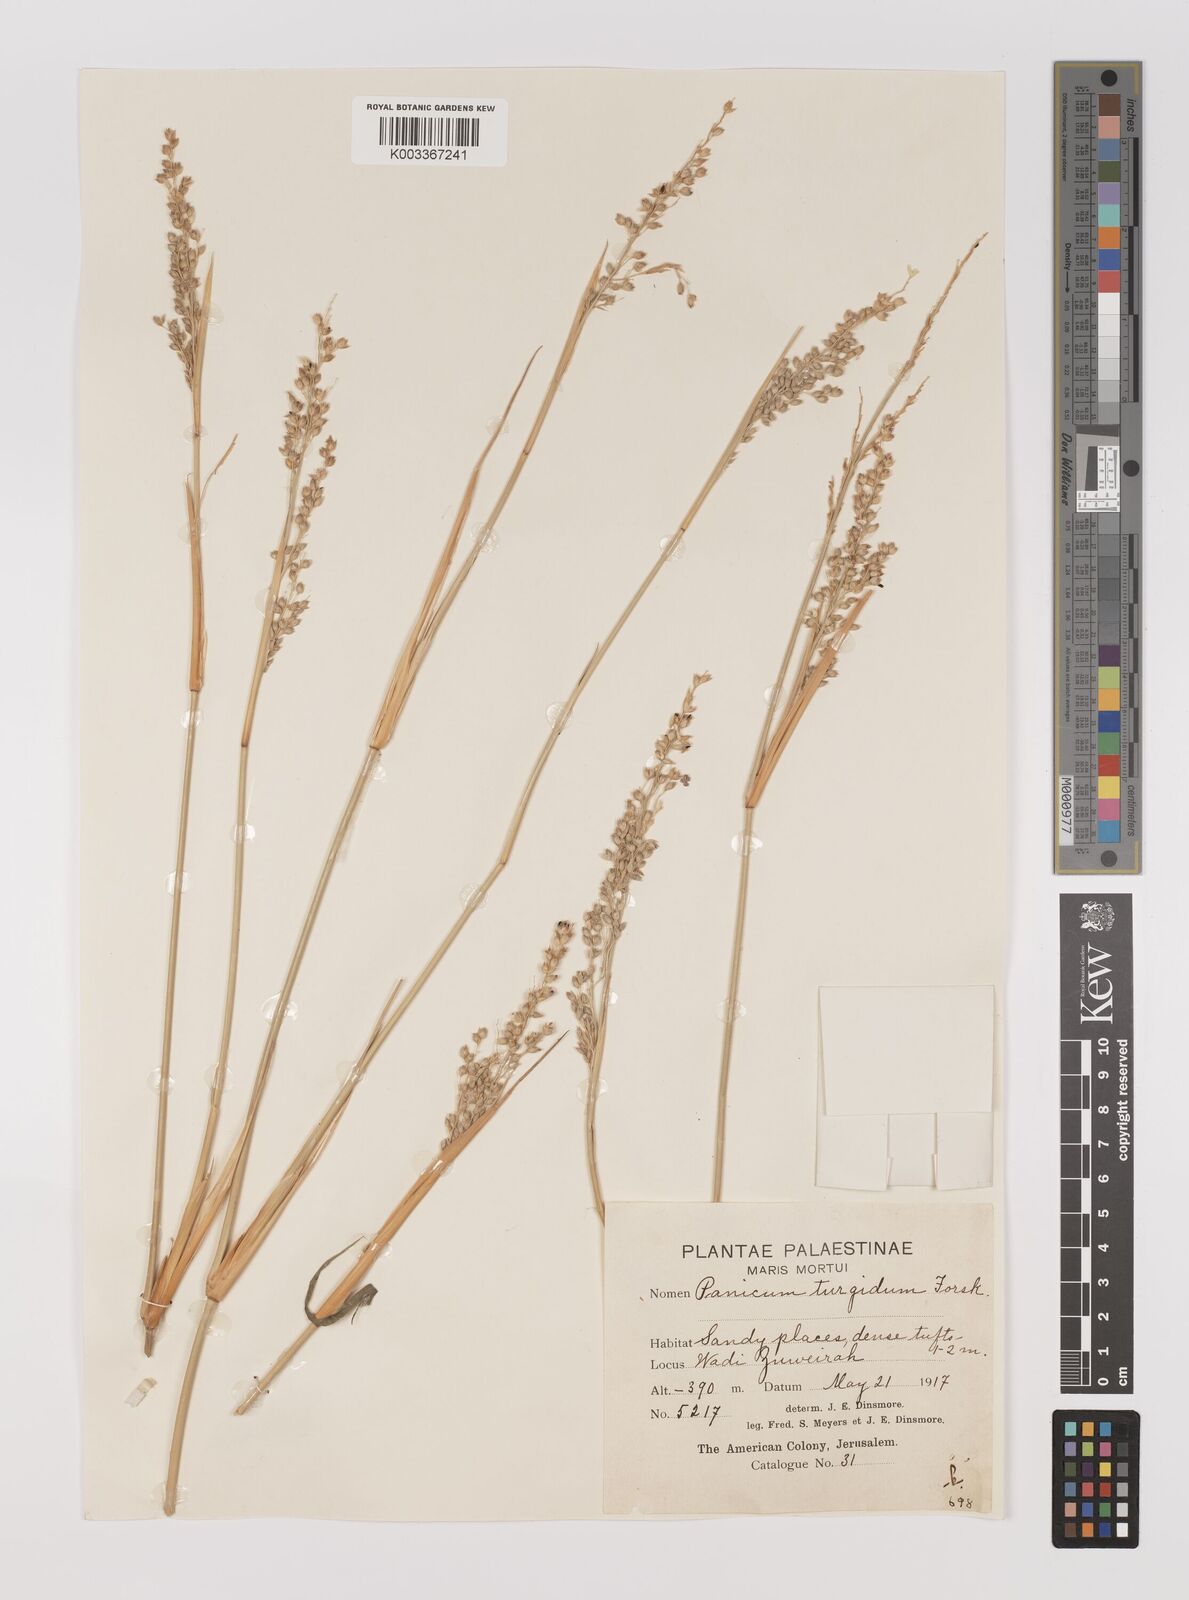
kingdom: Plantae
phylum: Tracheophyta
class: Liliopsida
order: Poales
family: Poaceae
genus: Panicum
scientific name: Panicum turgidum
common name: Desert grass
